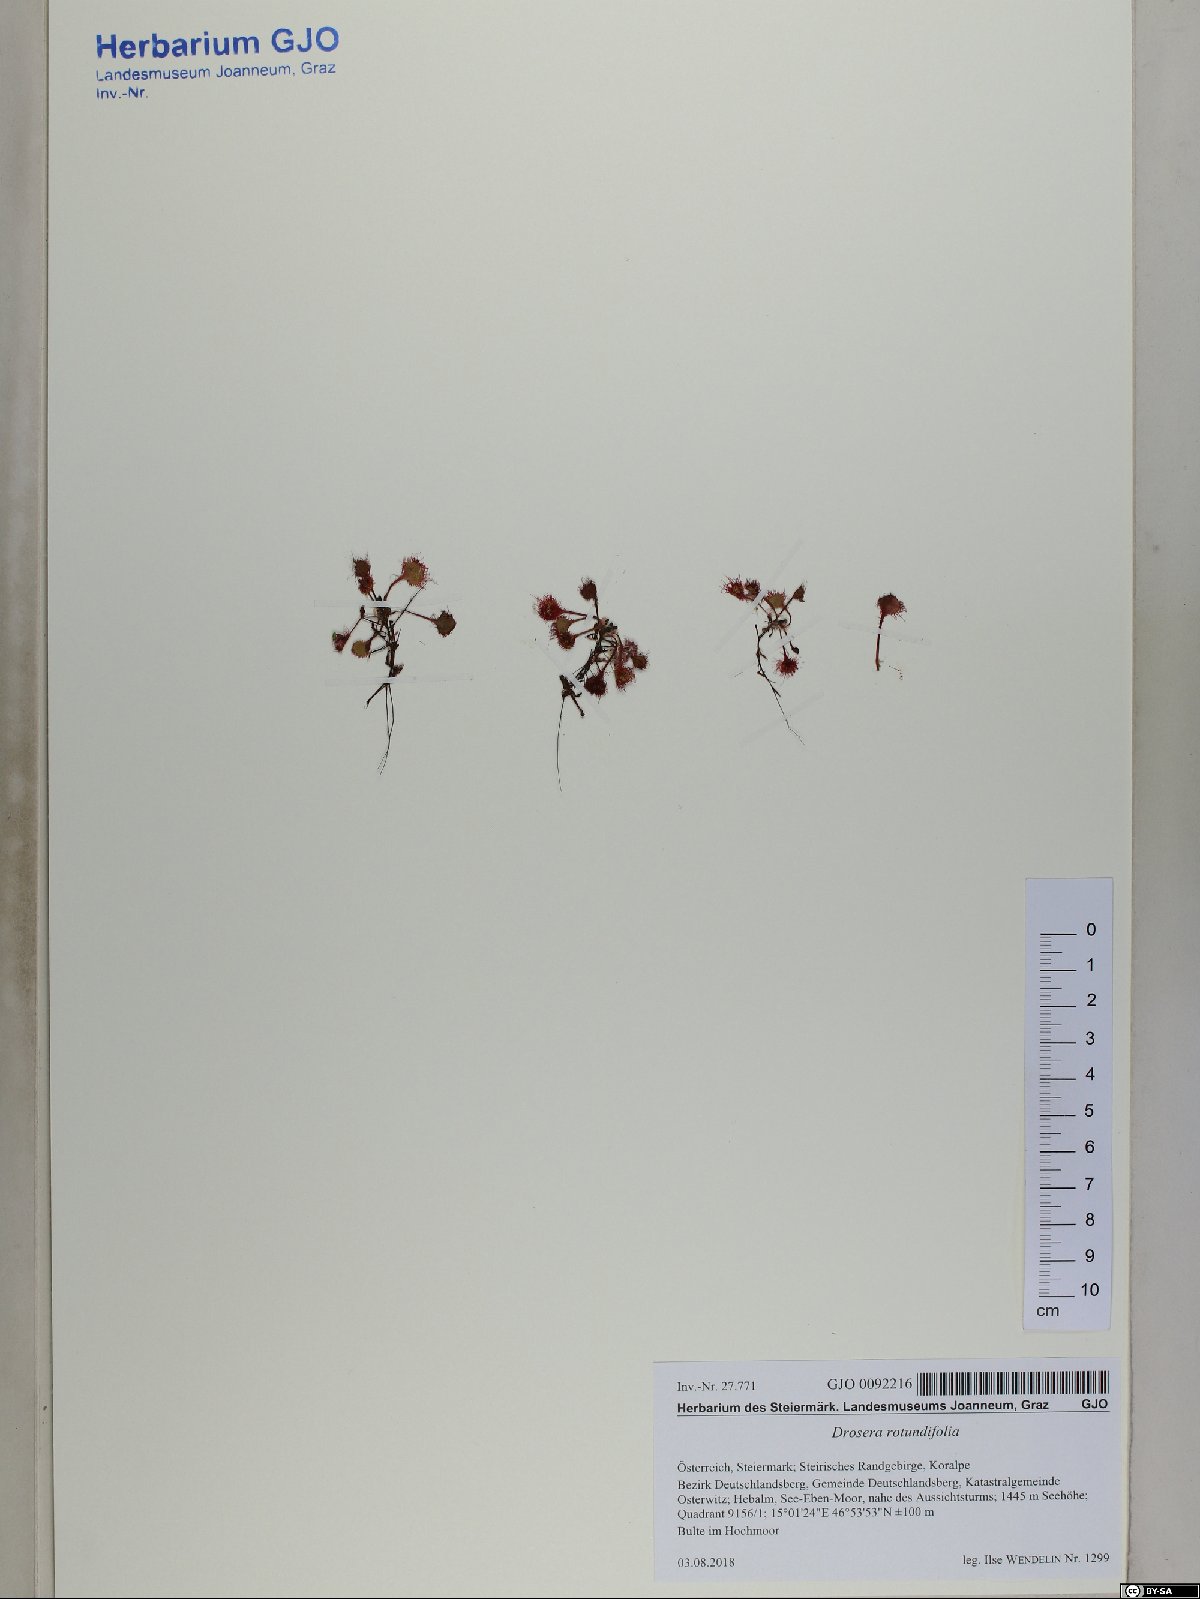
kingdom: Plantae
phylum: Tracheophyta
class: Magnoliopsida
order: Caryophyllales
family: Droseraceae
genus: Drosera
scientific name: Drosera rotundifolia
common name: Round-leaved sundew
